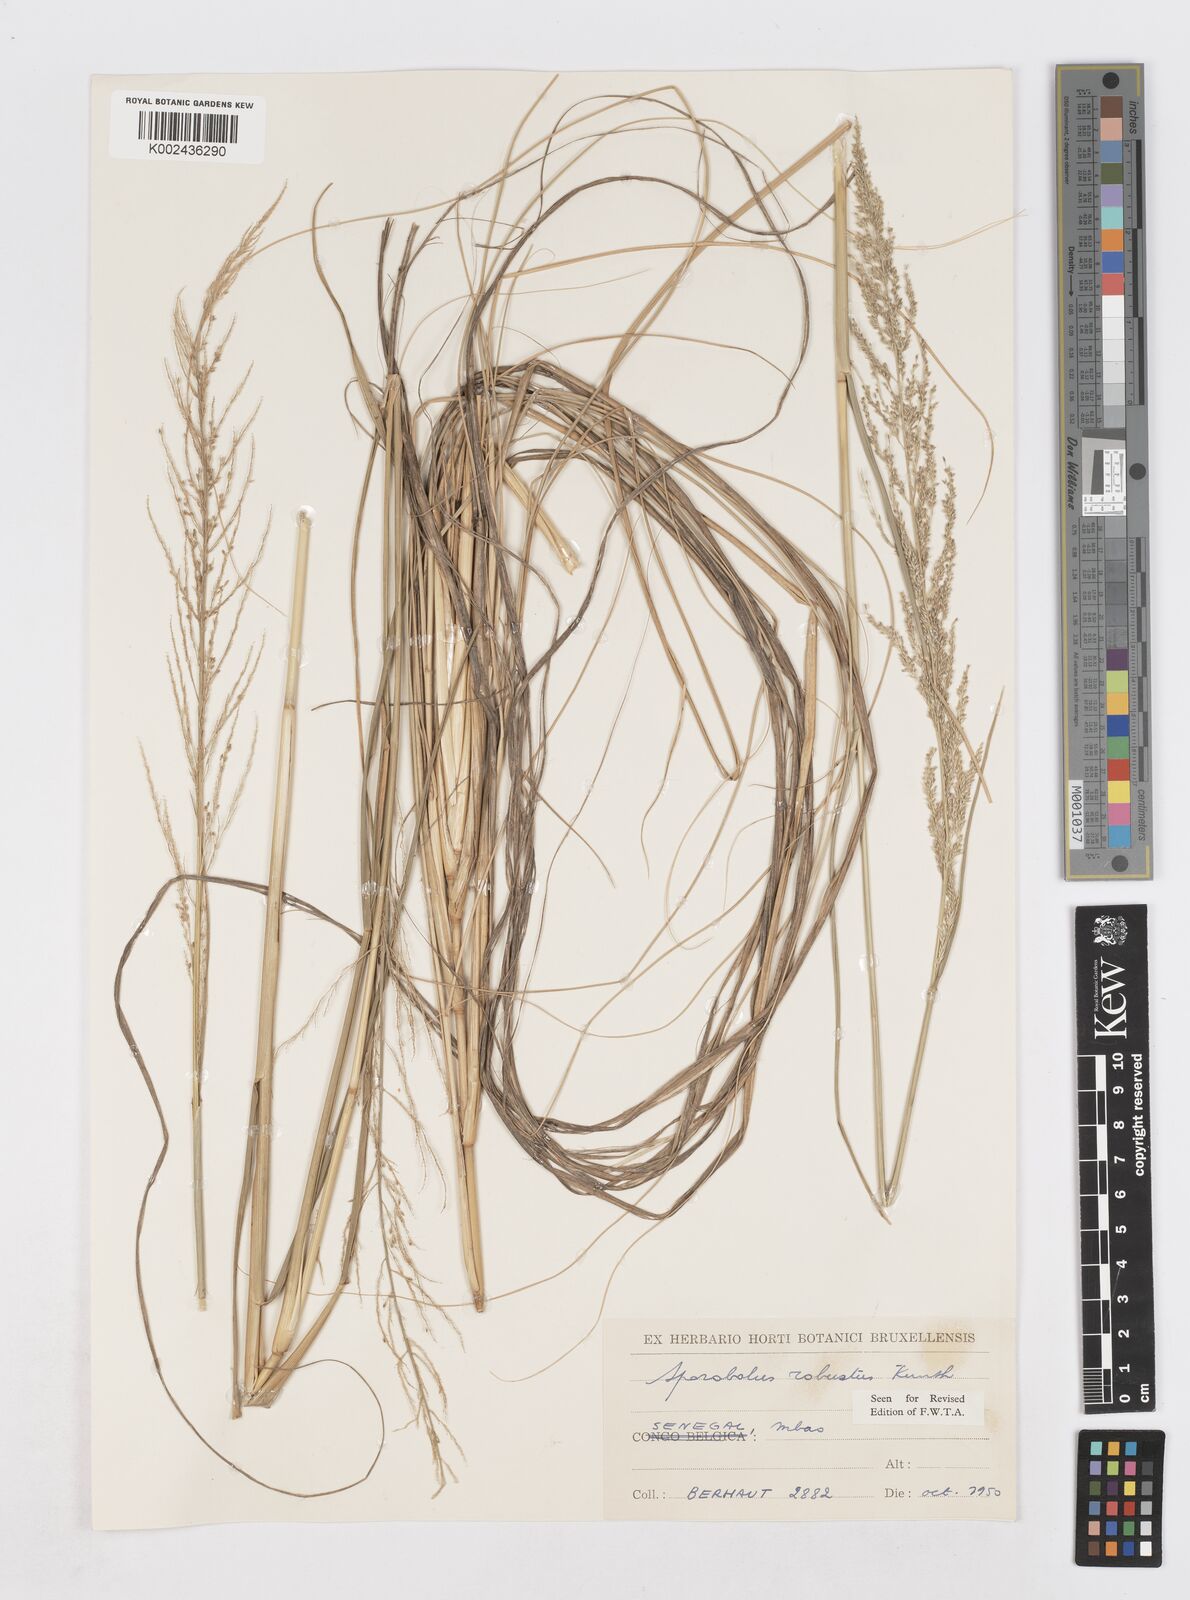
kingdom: Plantae
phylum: Tracheophyta
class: Liliopsida
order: Poales
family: Poaceae
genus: Sporobolus
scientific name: Sporobolus robustus
